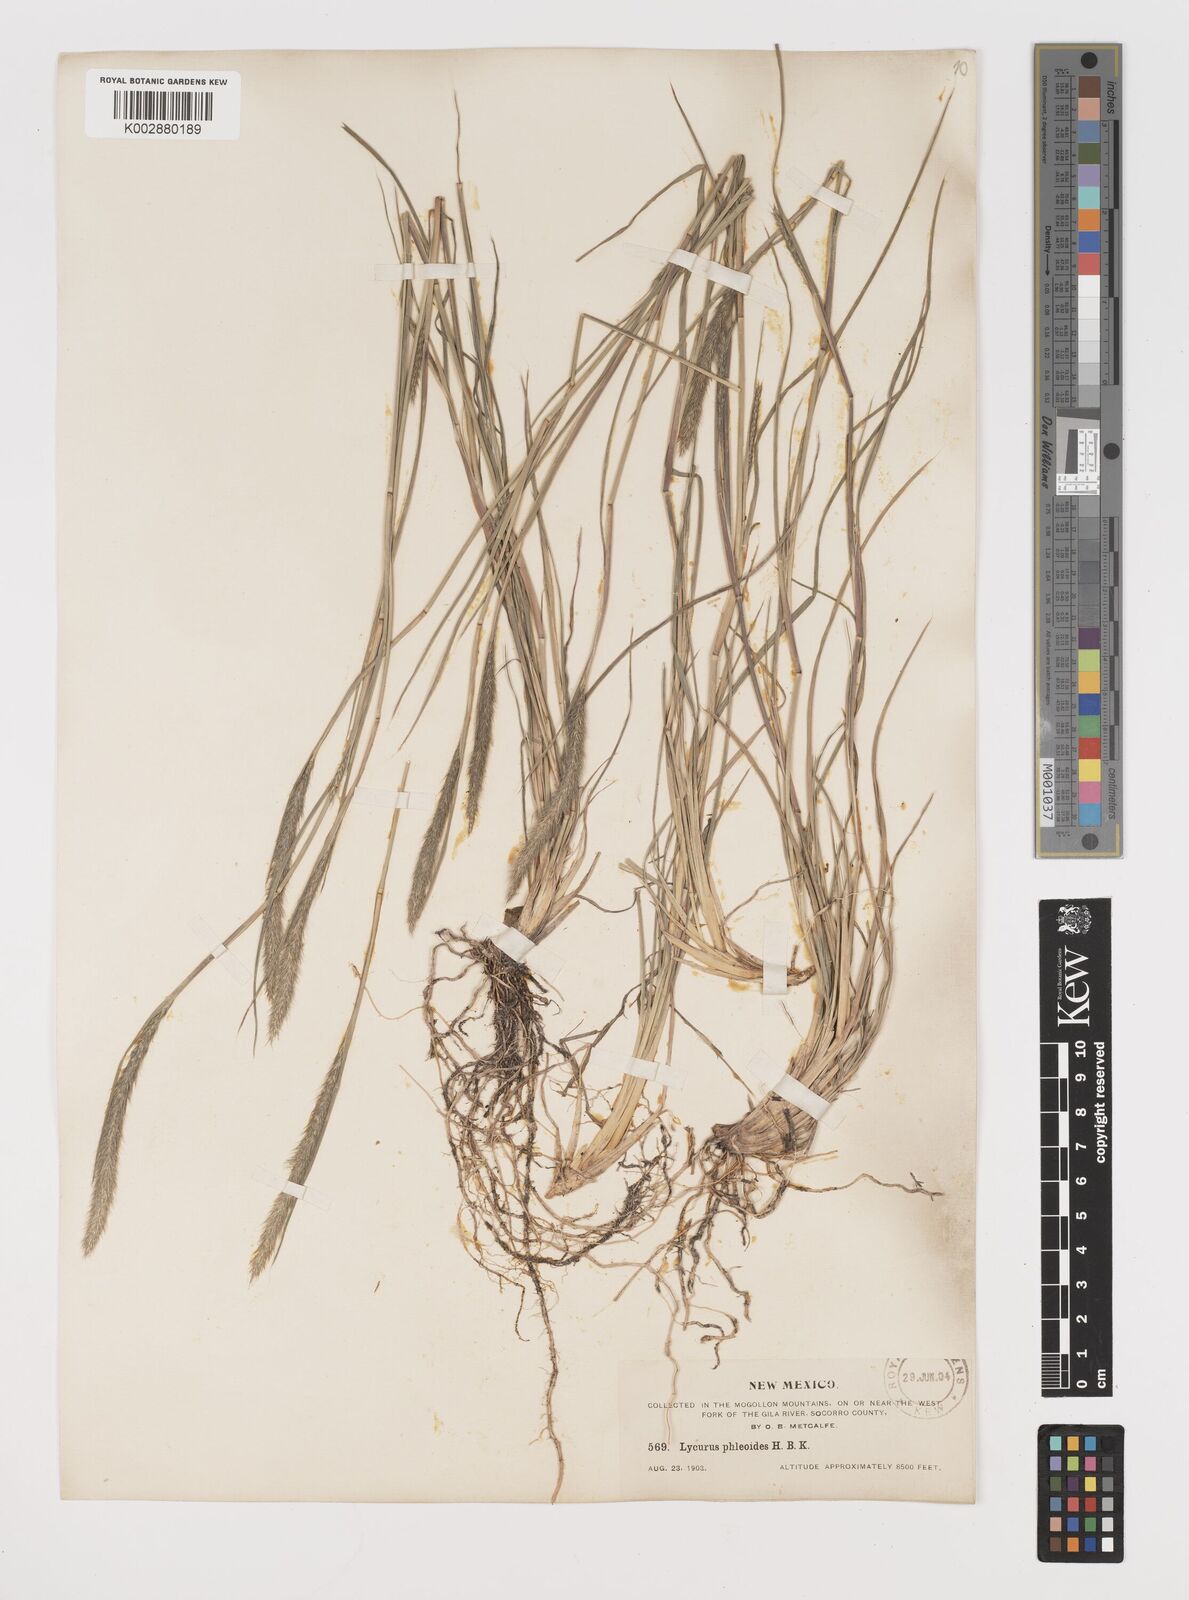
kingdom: Plantae
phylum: Tracheophyta
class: Liliopsida
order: Poales
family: Poaceae
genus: Muhlenbergia
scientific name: Muhlenbergia alopecuroides
